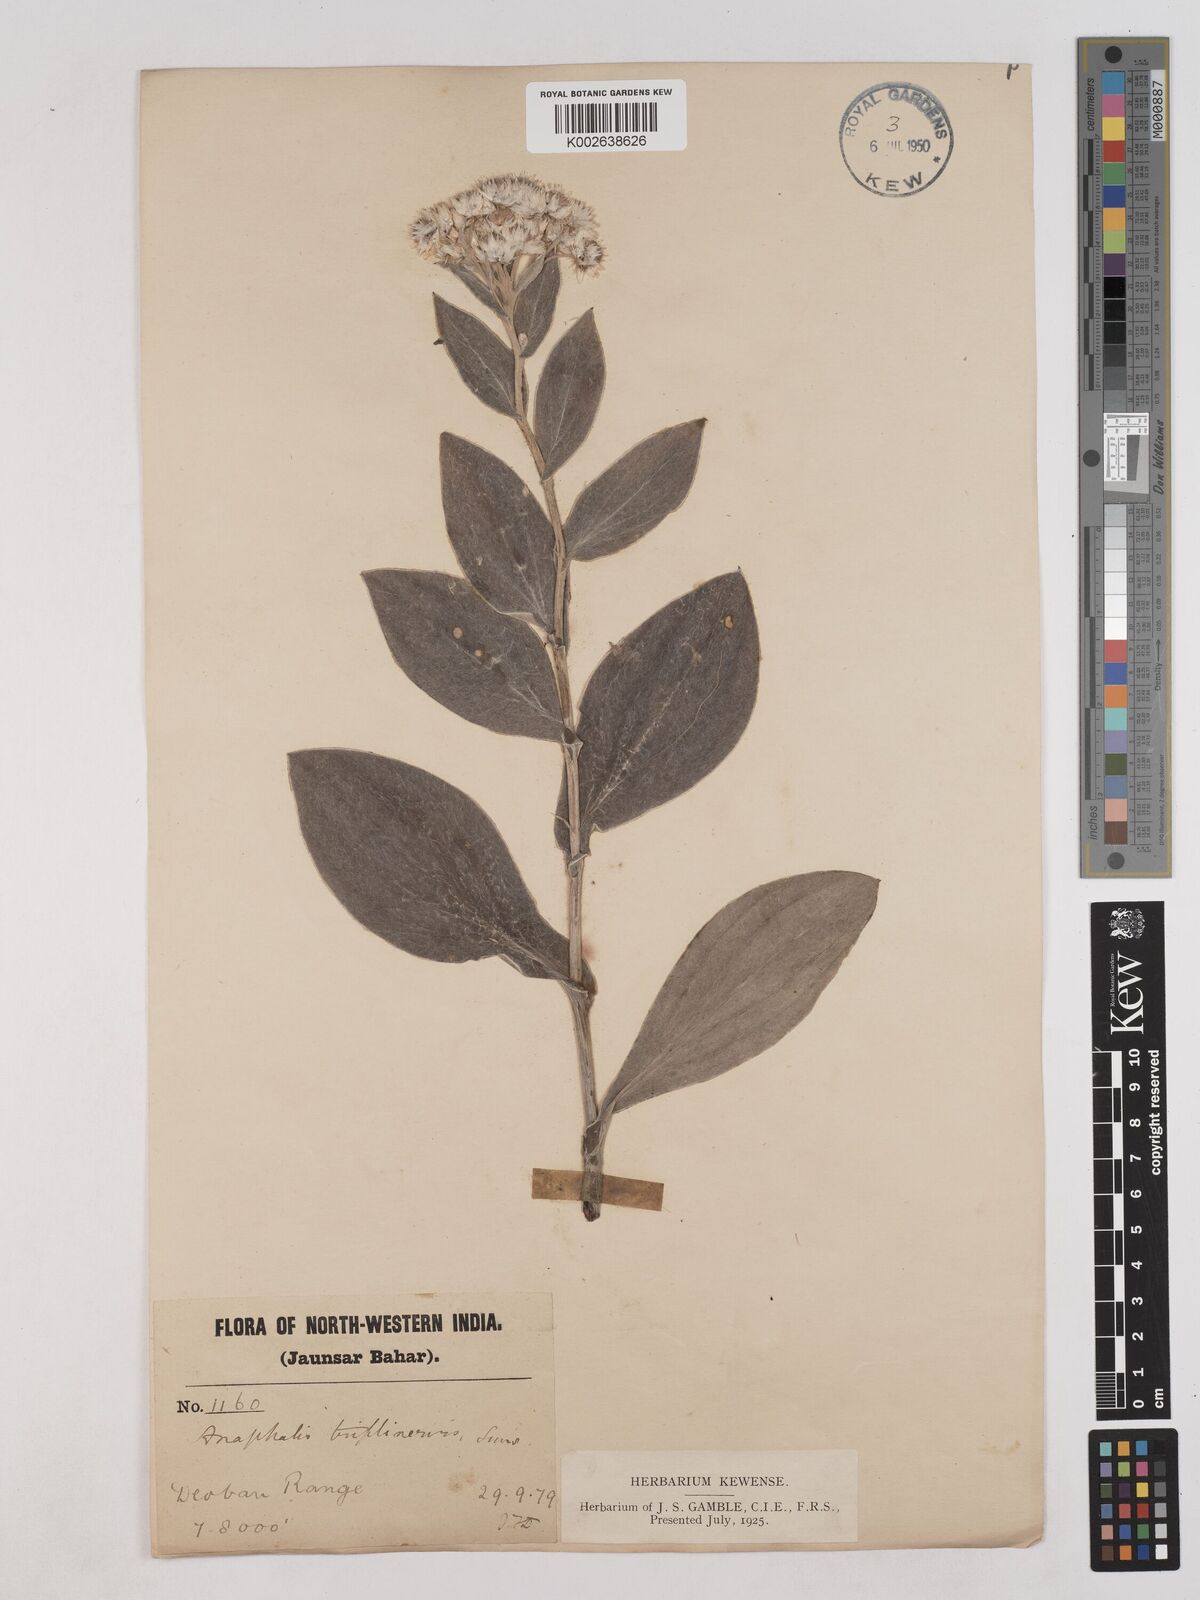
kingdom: Plantae
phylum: Tracheophyta
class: Magnoliopsida
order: Asterales
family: Asteraceae
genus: Anaphalis
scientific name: Anaphalis triplinervis
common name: Pearly everlasting
